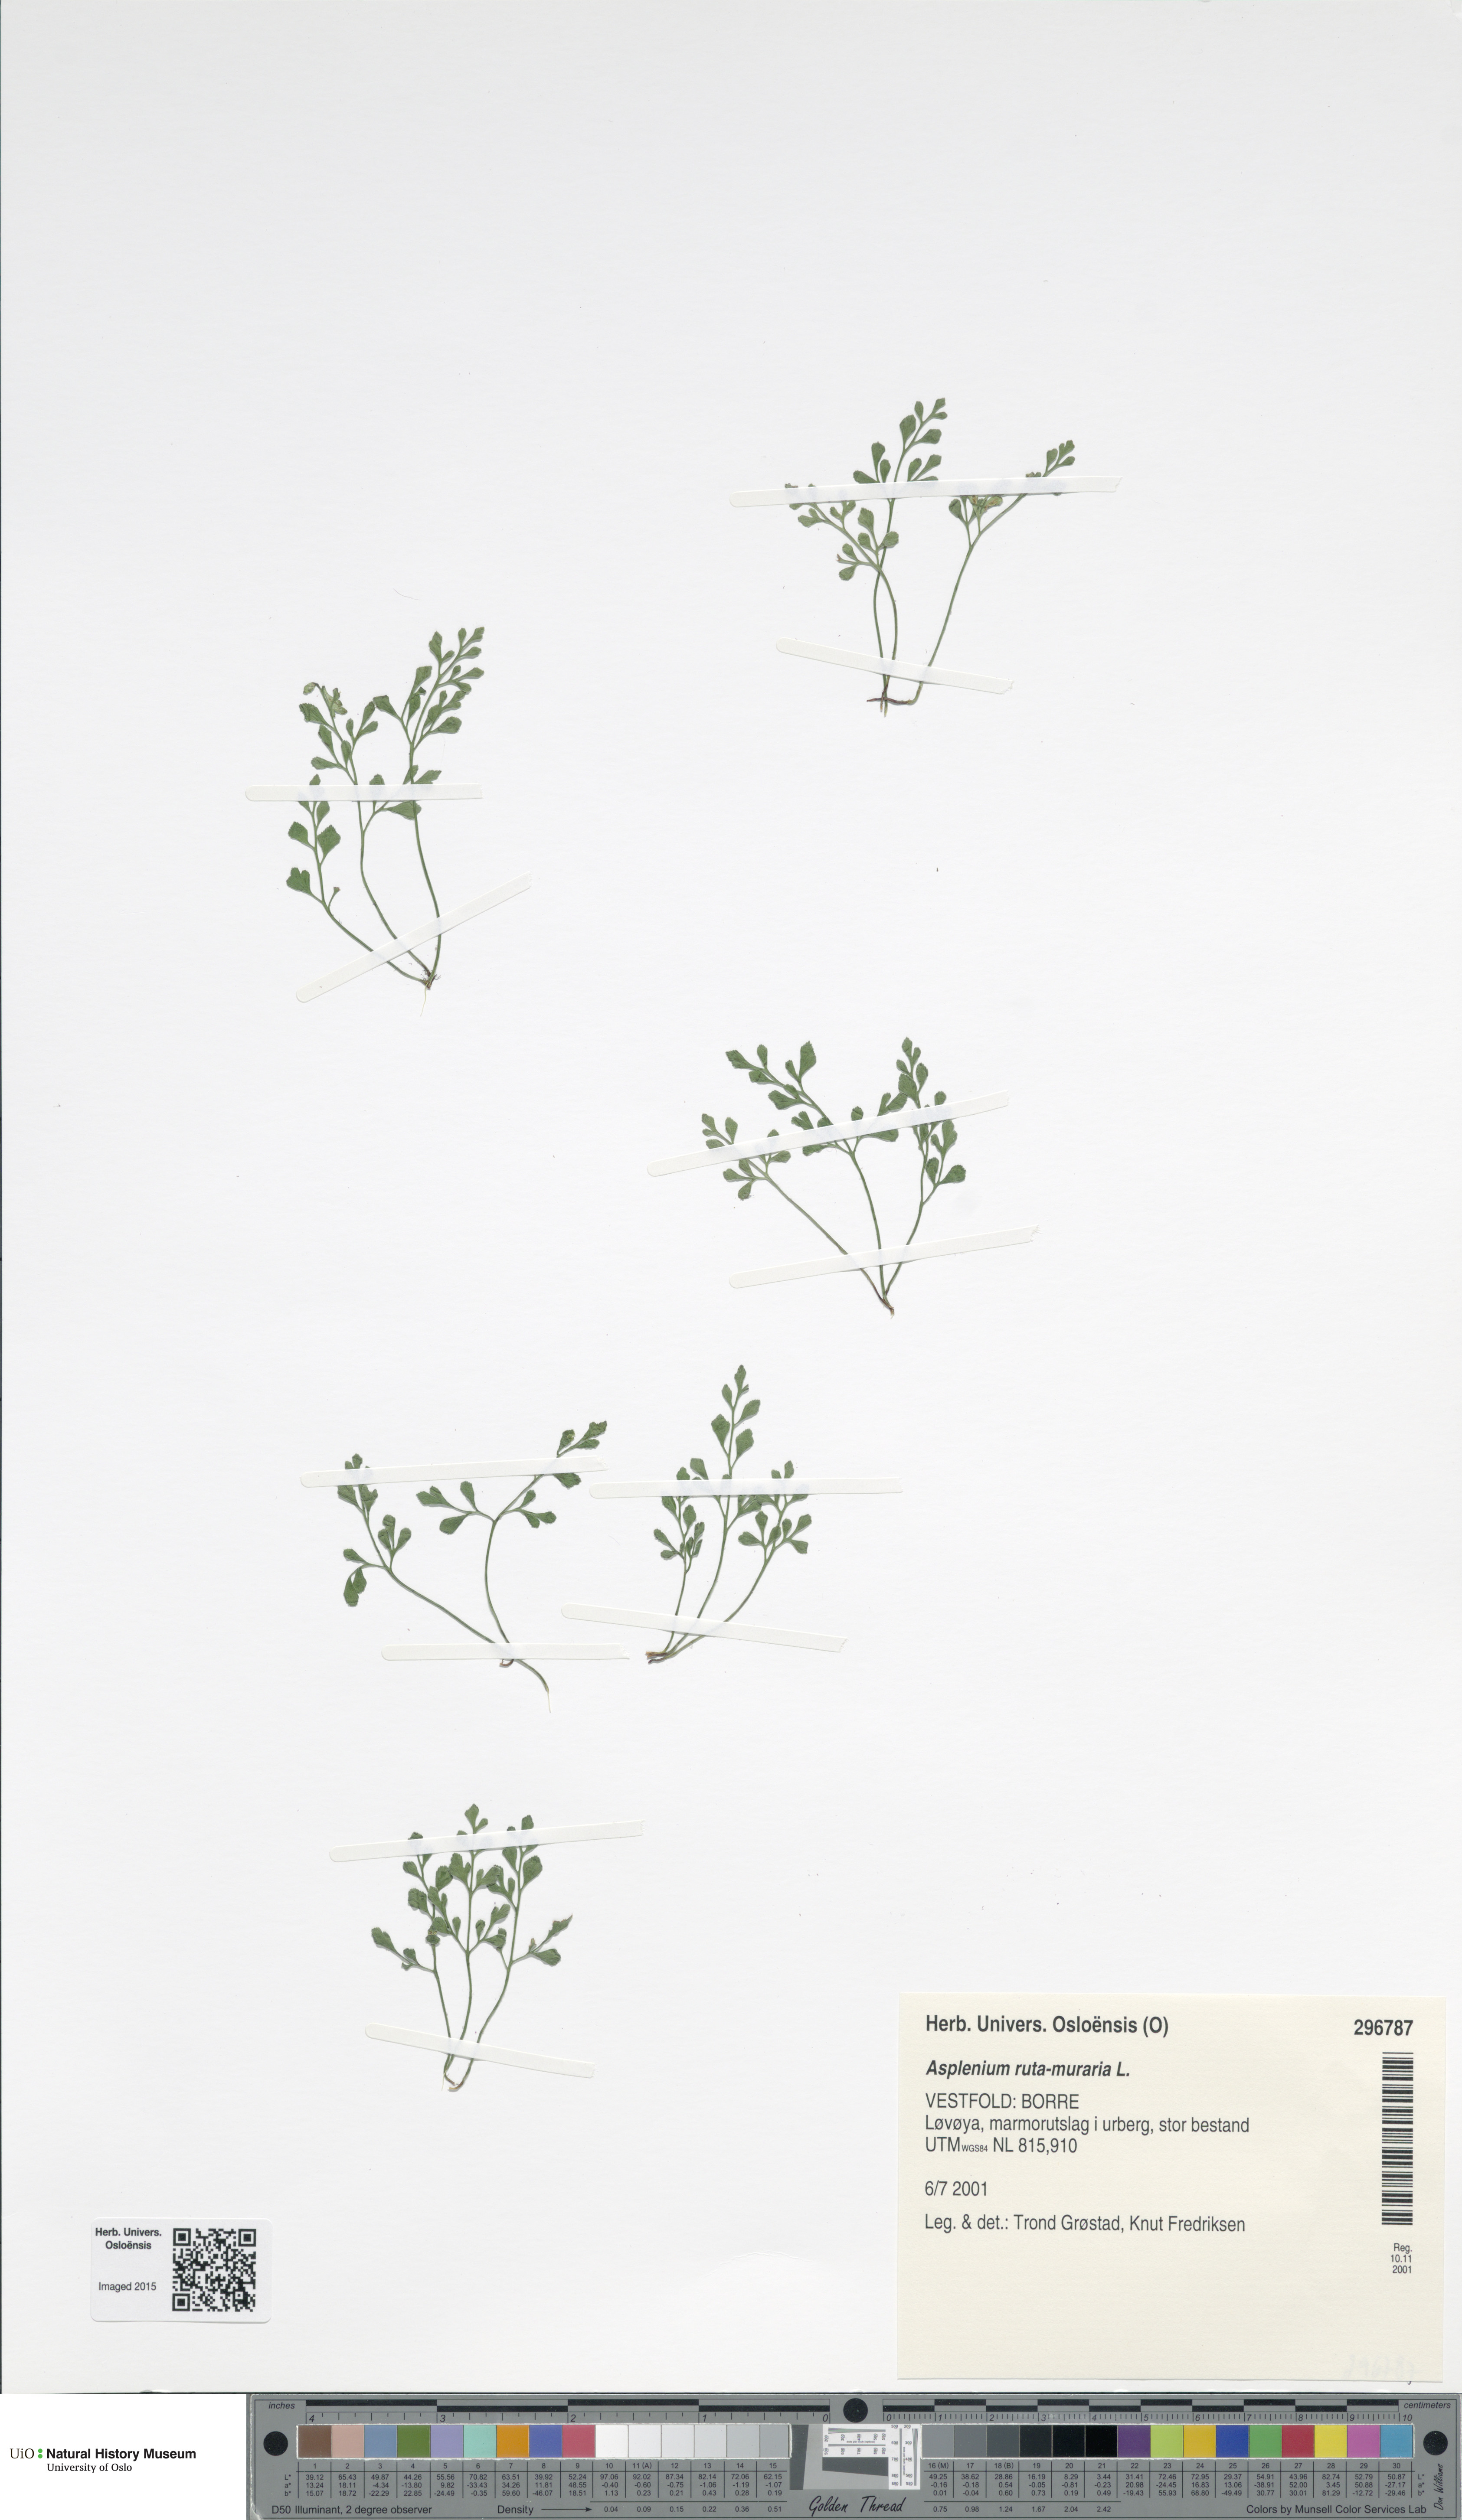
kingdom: Plantae
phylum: Tracheophyta
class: Polypodiopsida
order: Polypodiales
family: Aspleniaceae
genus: Asplenium
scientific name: Asplenium ruta-muraria
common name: Wall-rue
